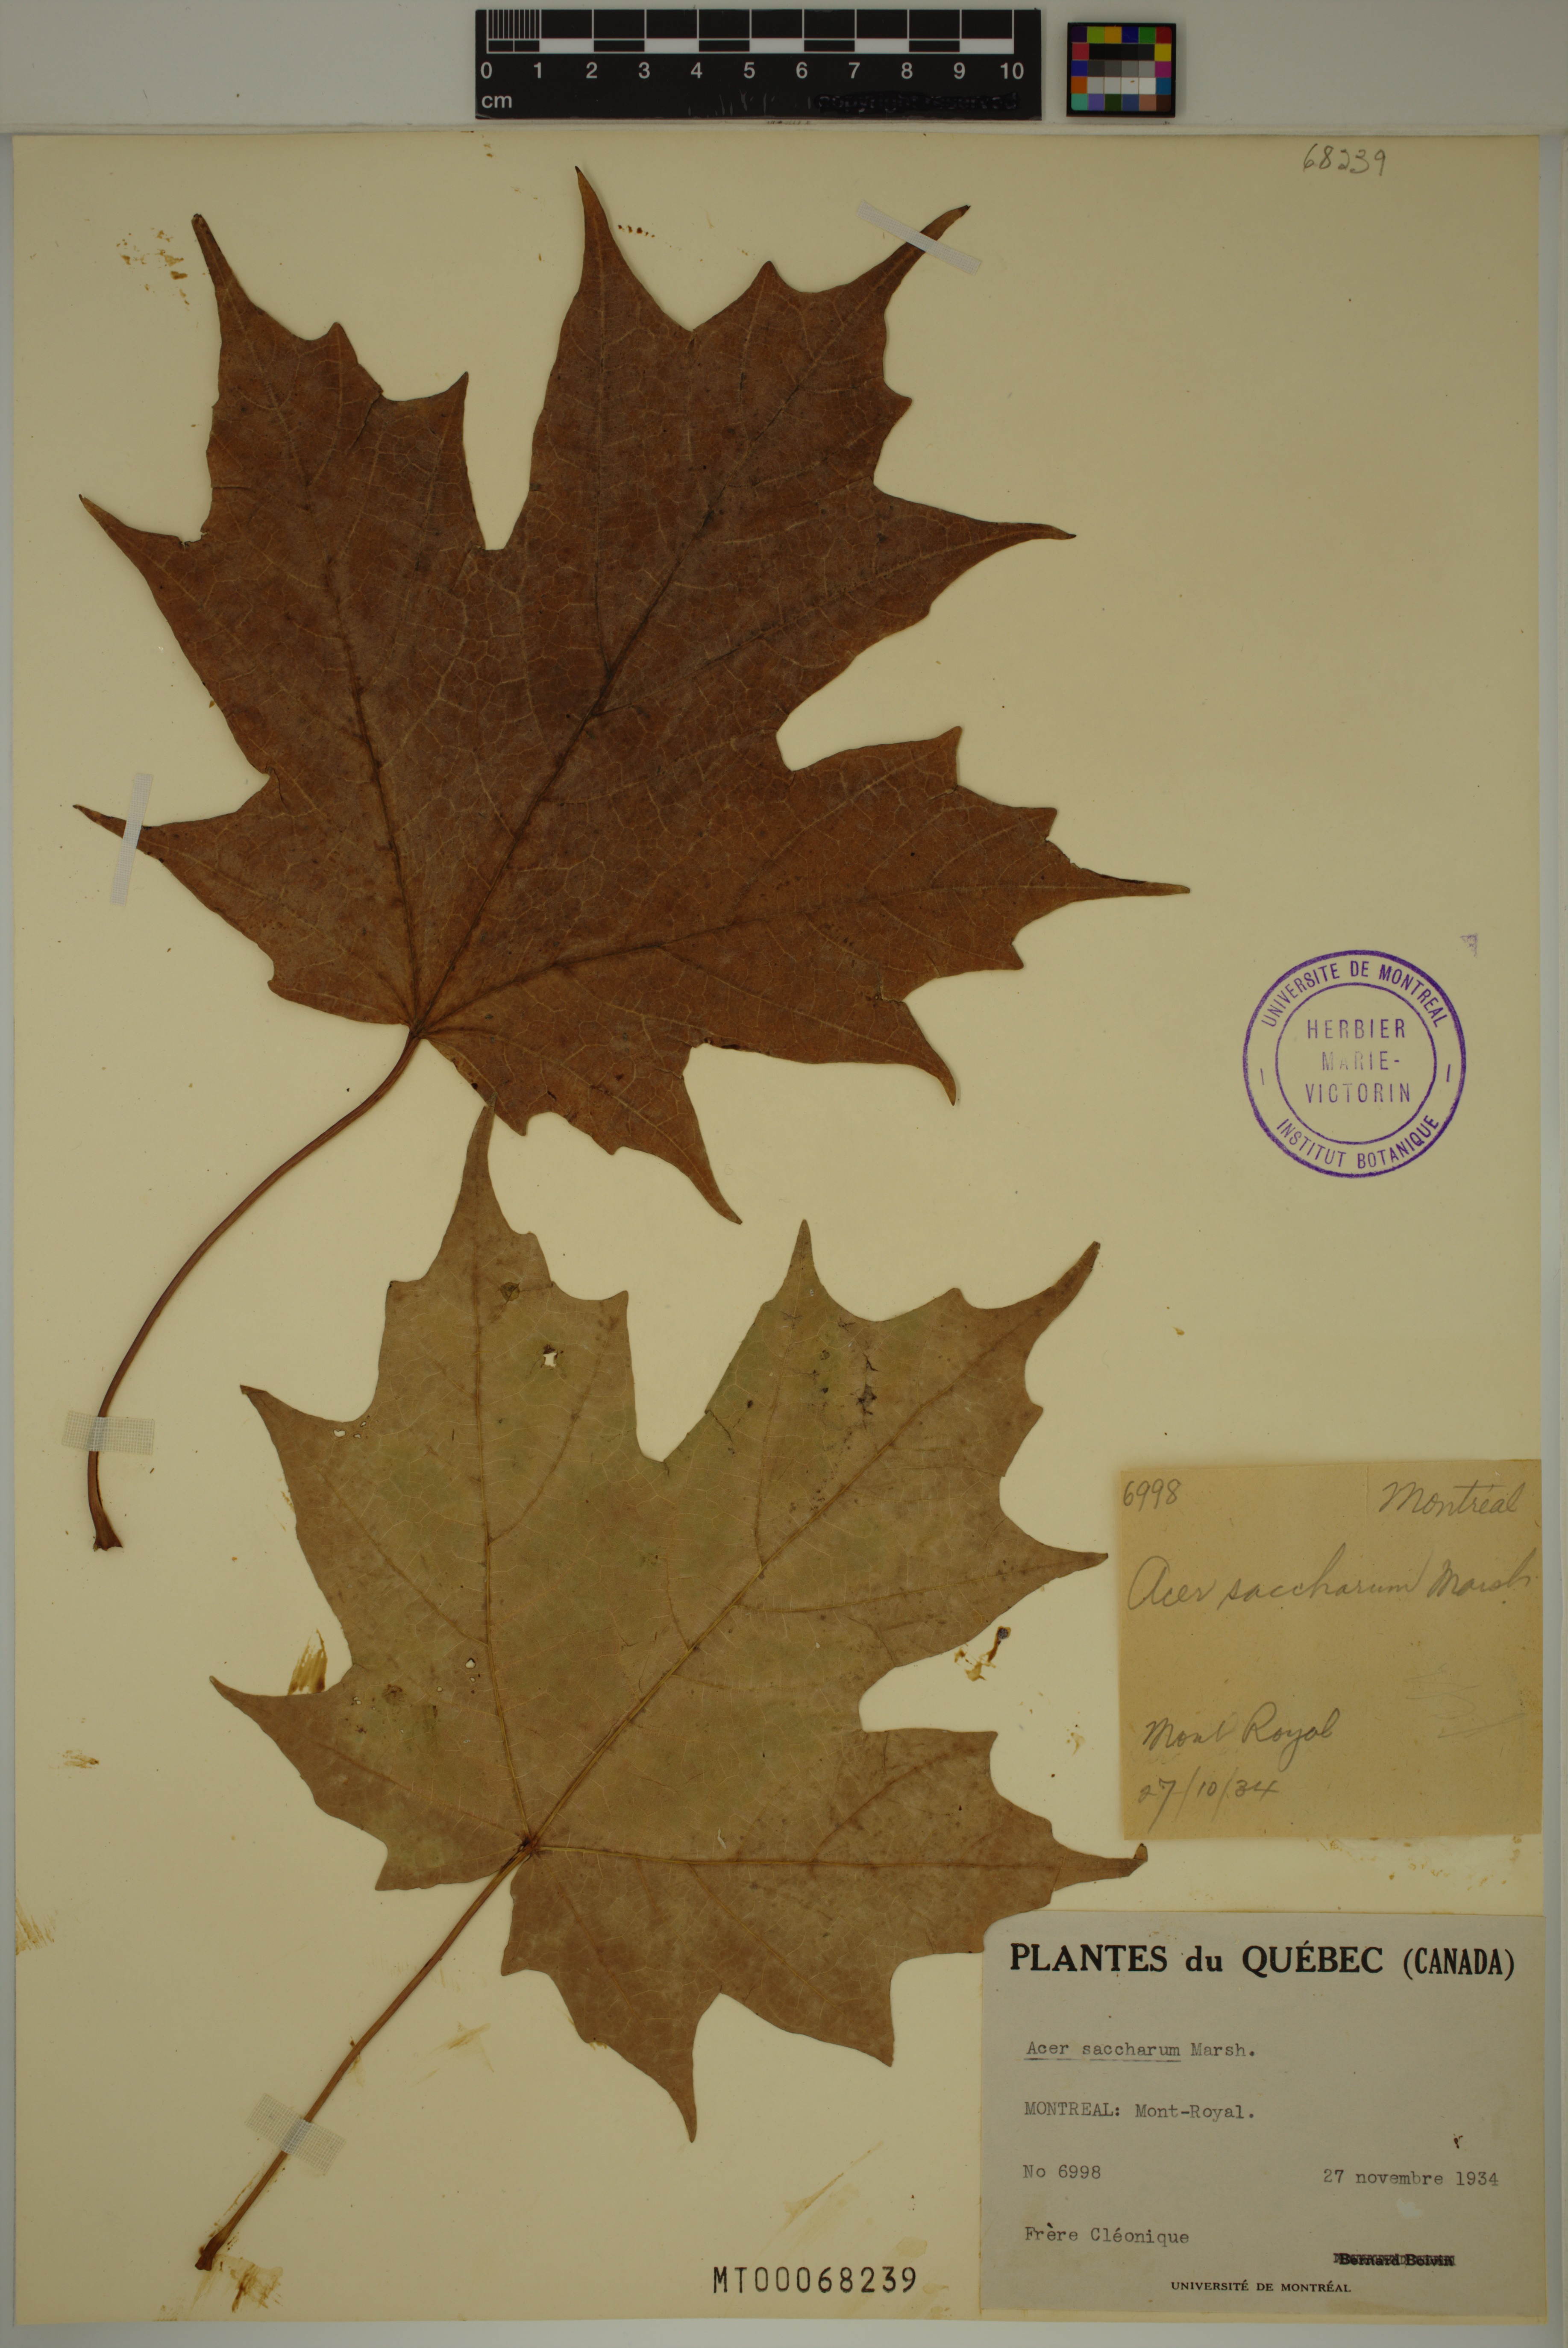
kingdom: Plantae
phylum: Tracheophyta
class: Magnoliopsida
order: Sapindales
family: Sapindaceae
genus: Acer
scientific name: Acer saccharum
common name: Sugar maple
